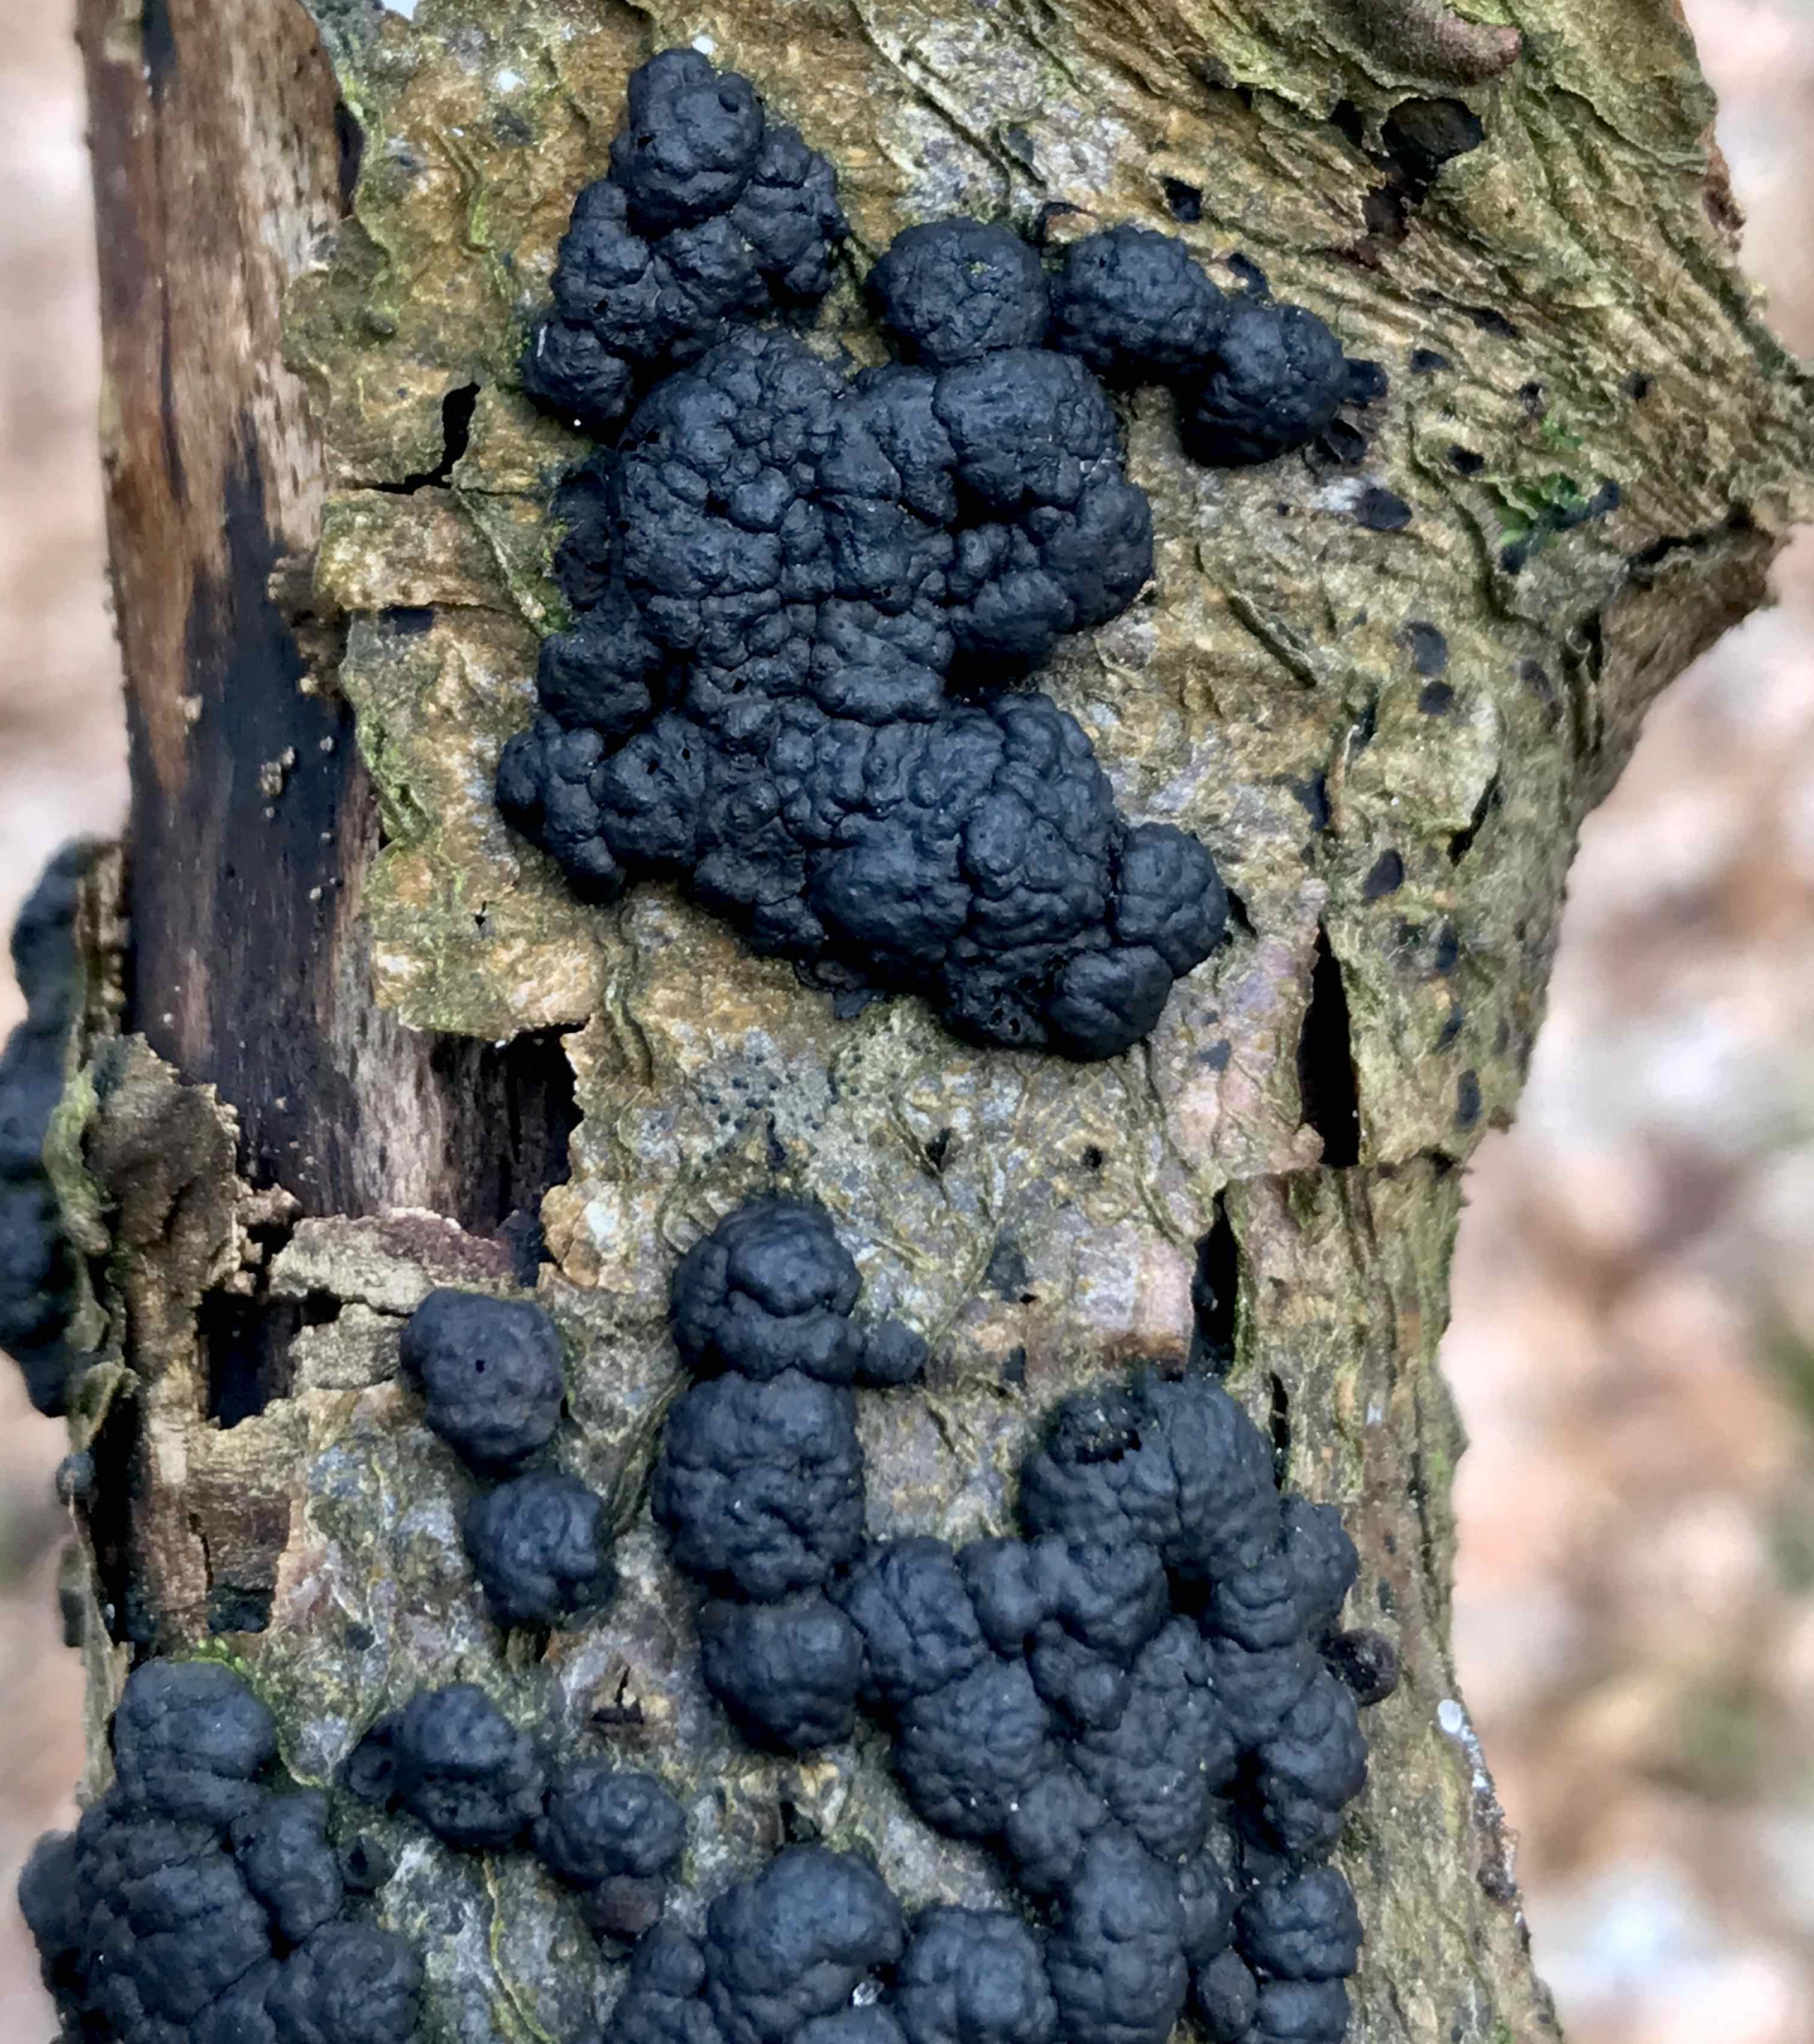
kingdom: Fungi
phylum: Ascomycota
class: Sordariomycetes
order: Xylariales
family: Hypoxylaceae
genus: Jackrogersella
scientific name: Jackrogersella cohaerens
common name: sammenflydende kulbær
